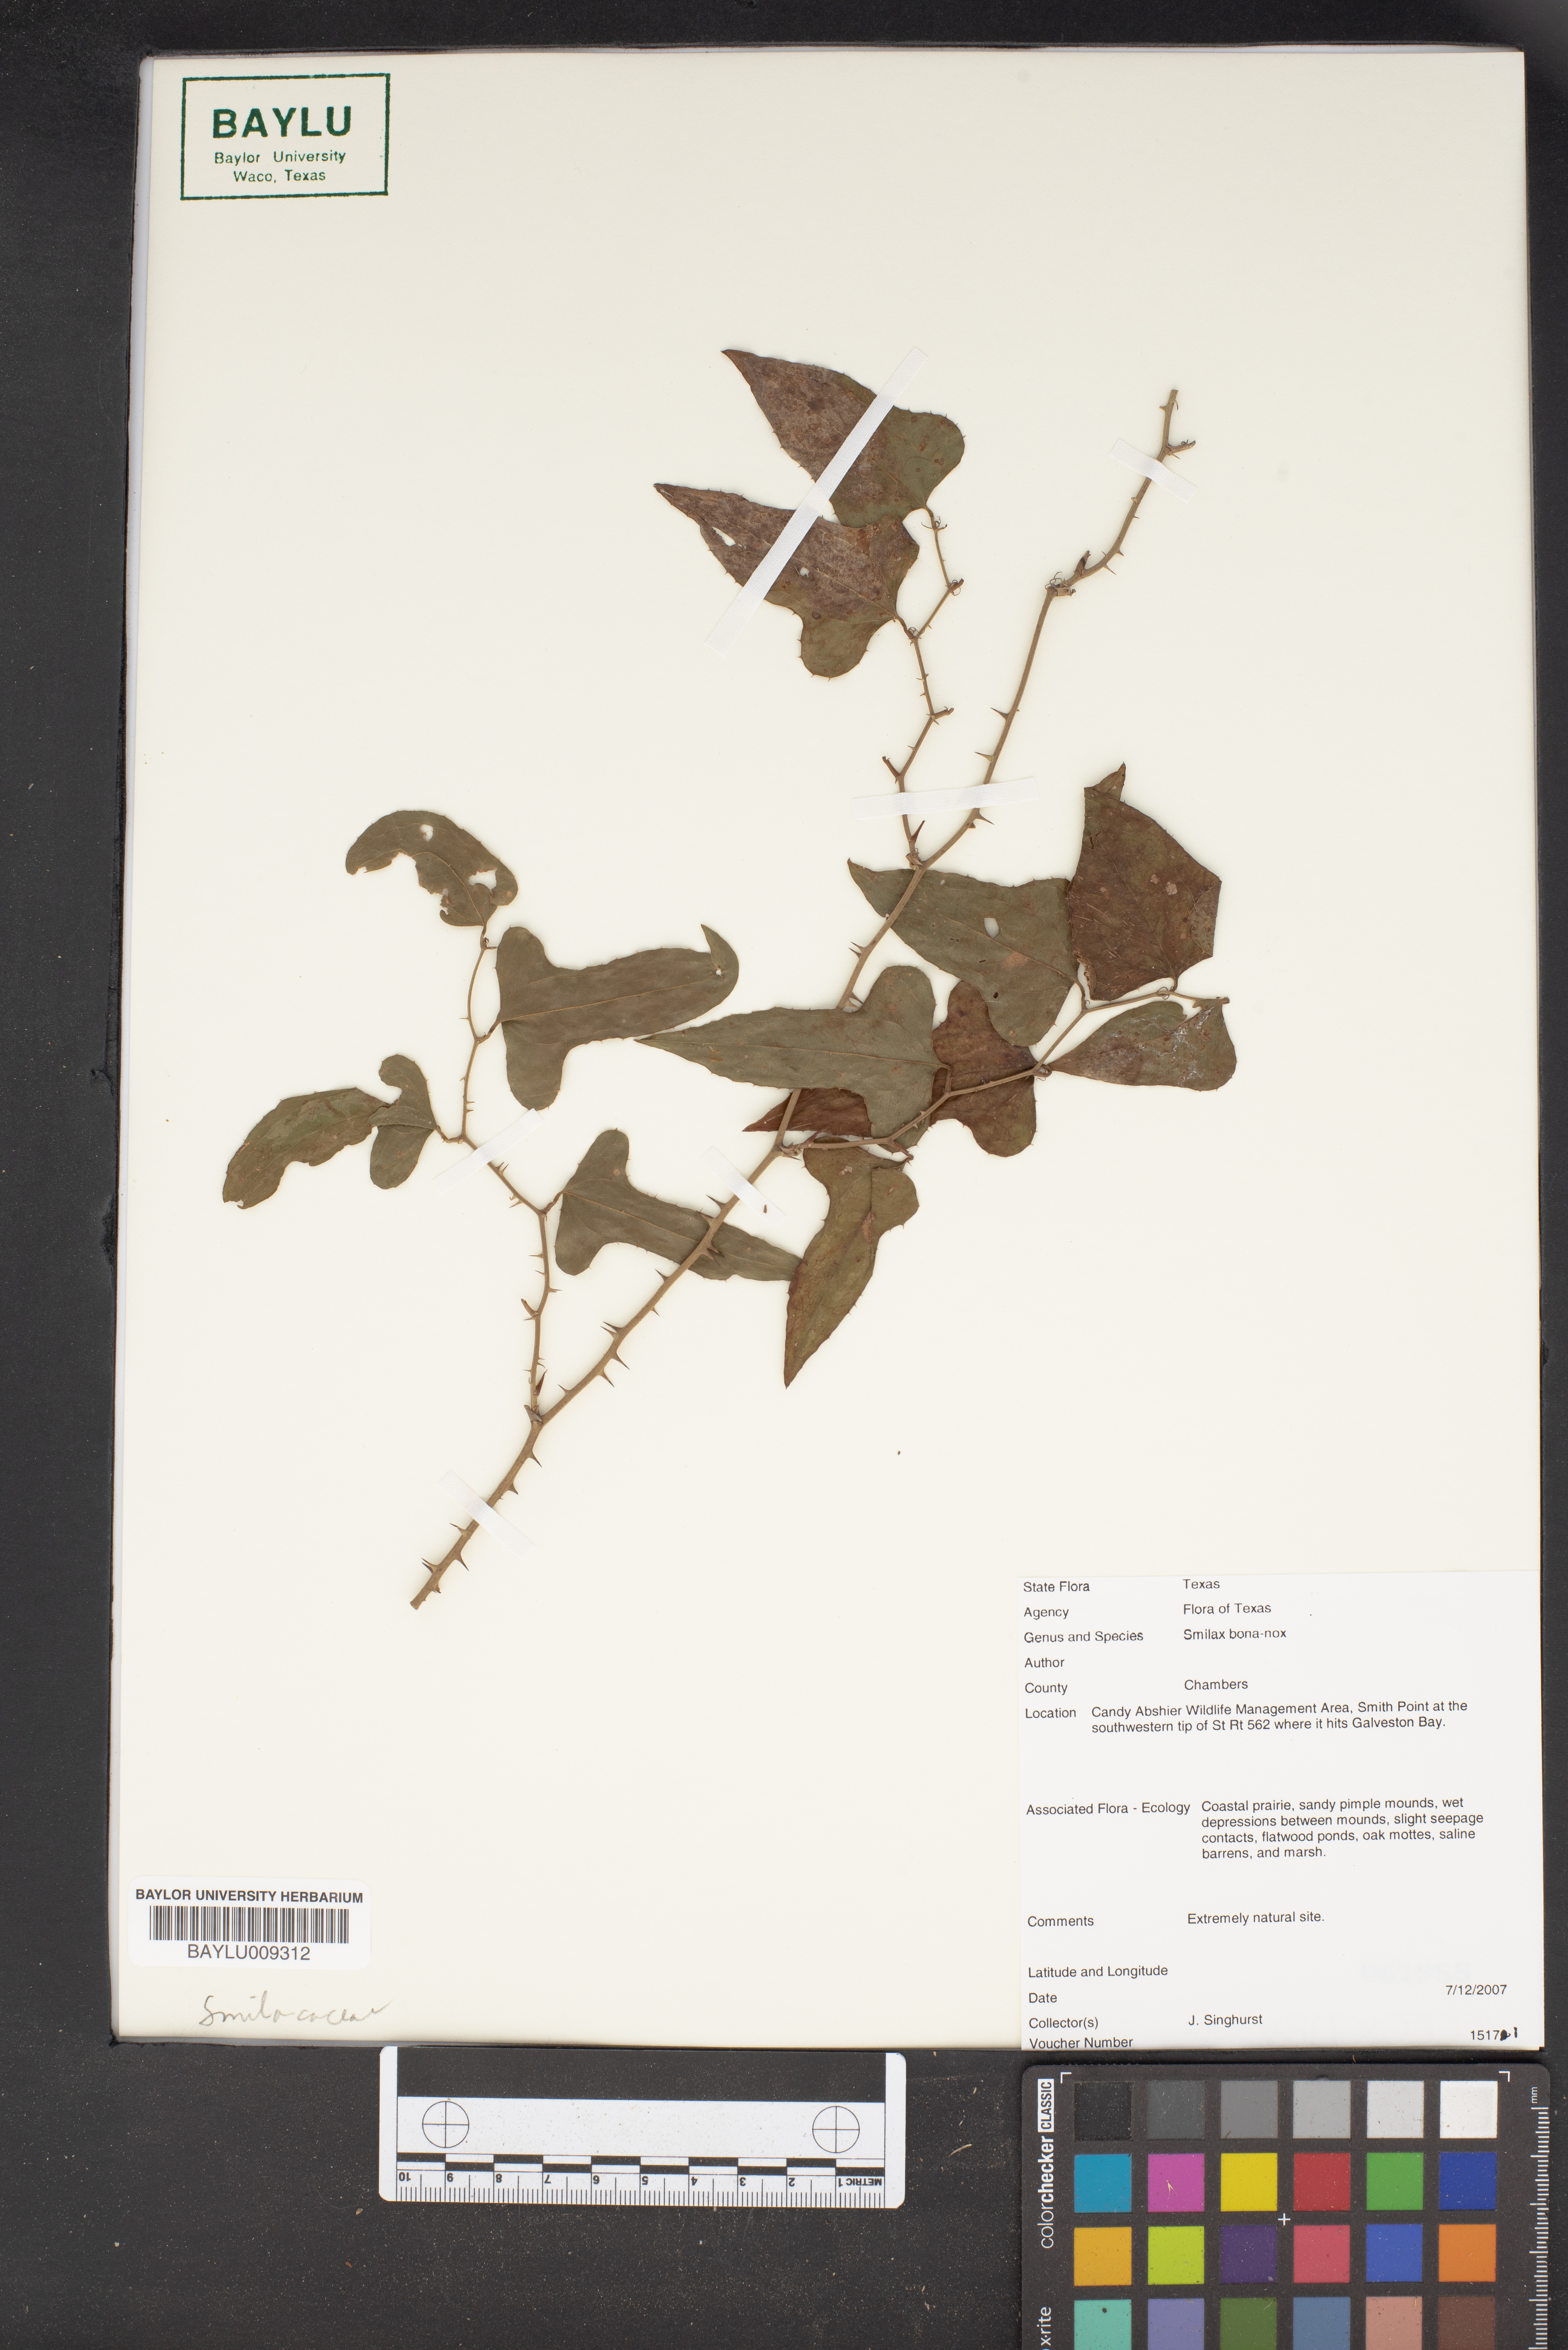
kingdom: Plantae
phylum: Tracheophyta
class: Liliopsida
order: Liliales
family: Smilacaceae
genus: Smilax
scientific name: Smilax bona-nox
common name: Catbrier
